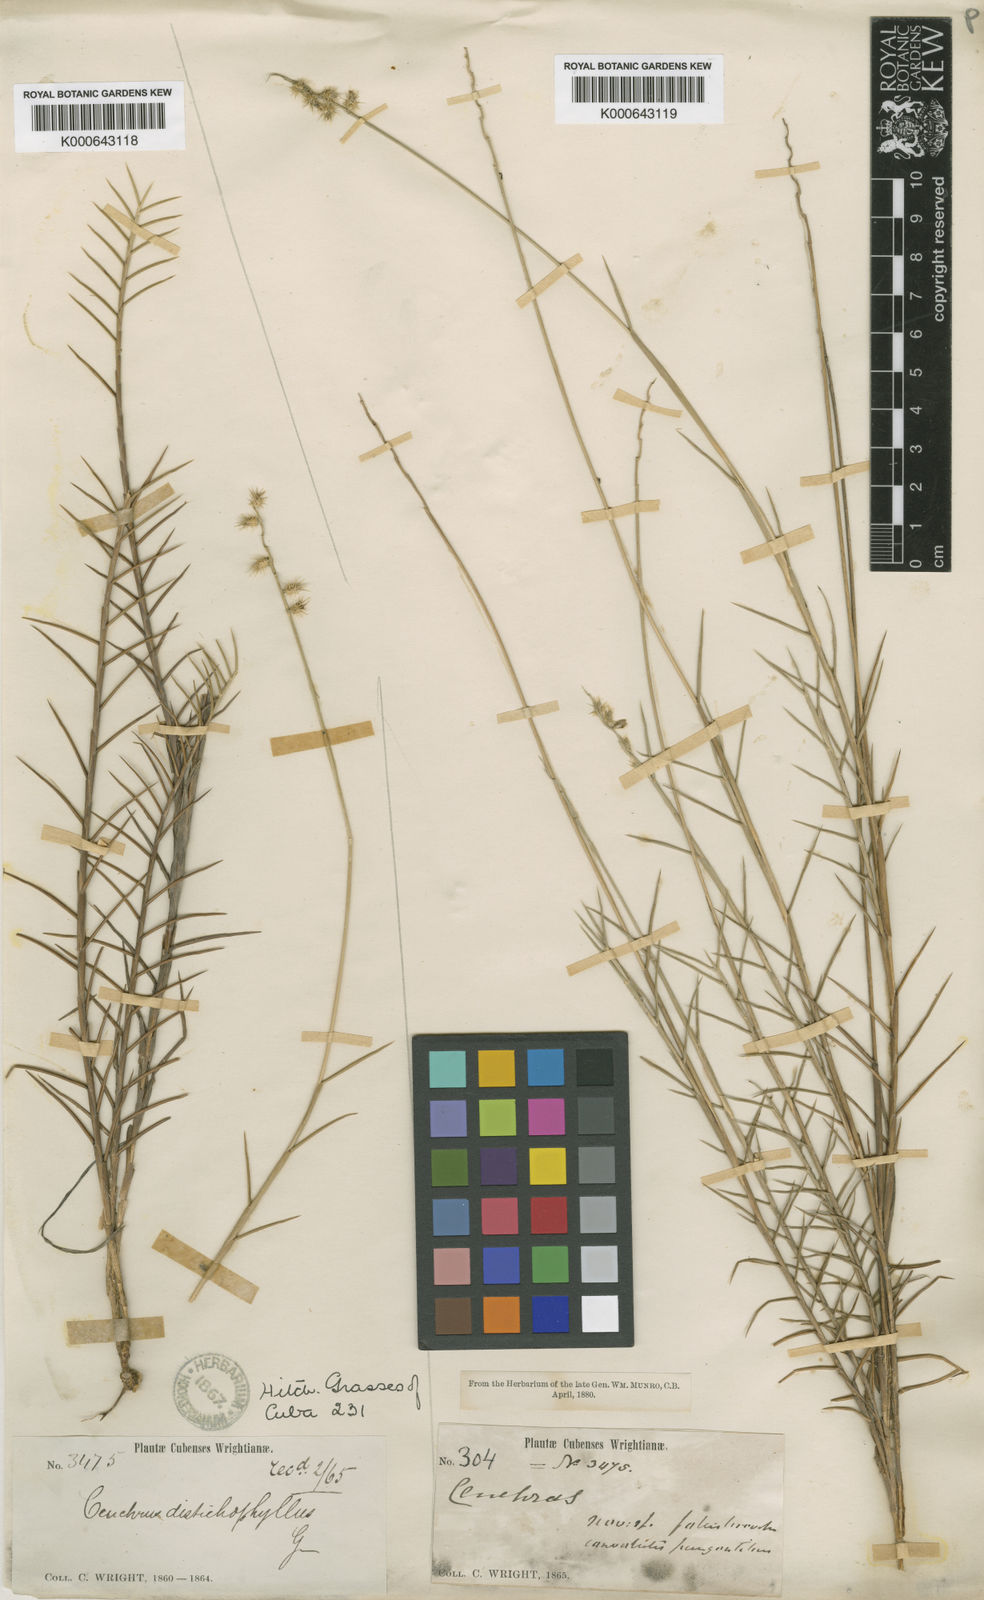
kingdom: Plantae
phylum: Tracheophyta
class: Liliopsida
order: Poales
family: Poaceae
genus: Cenchrus
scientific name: Cenchrus distichophyllus
